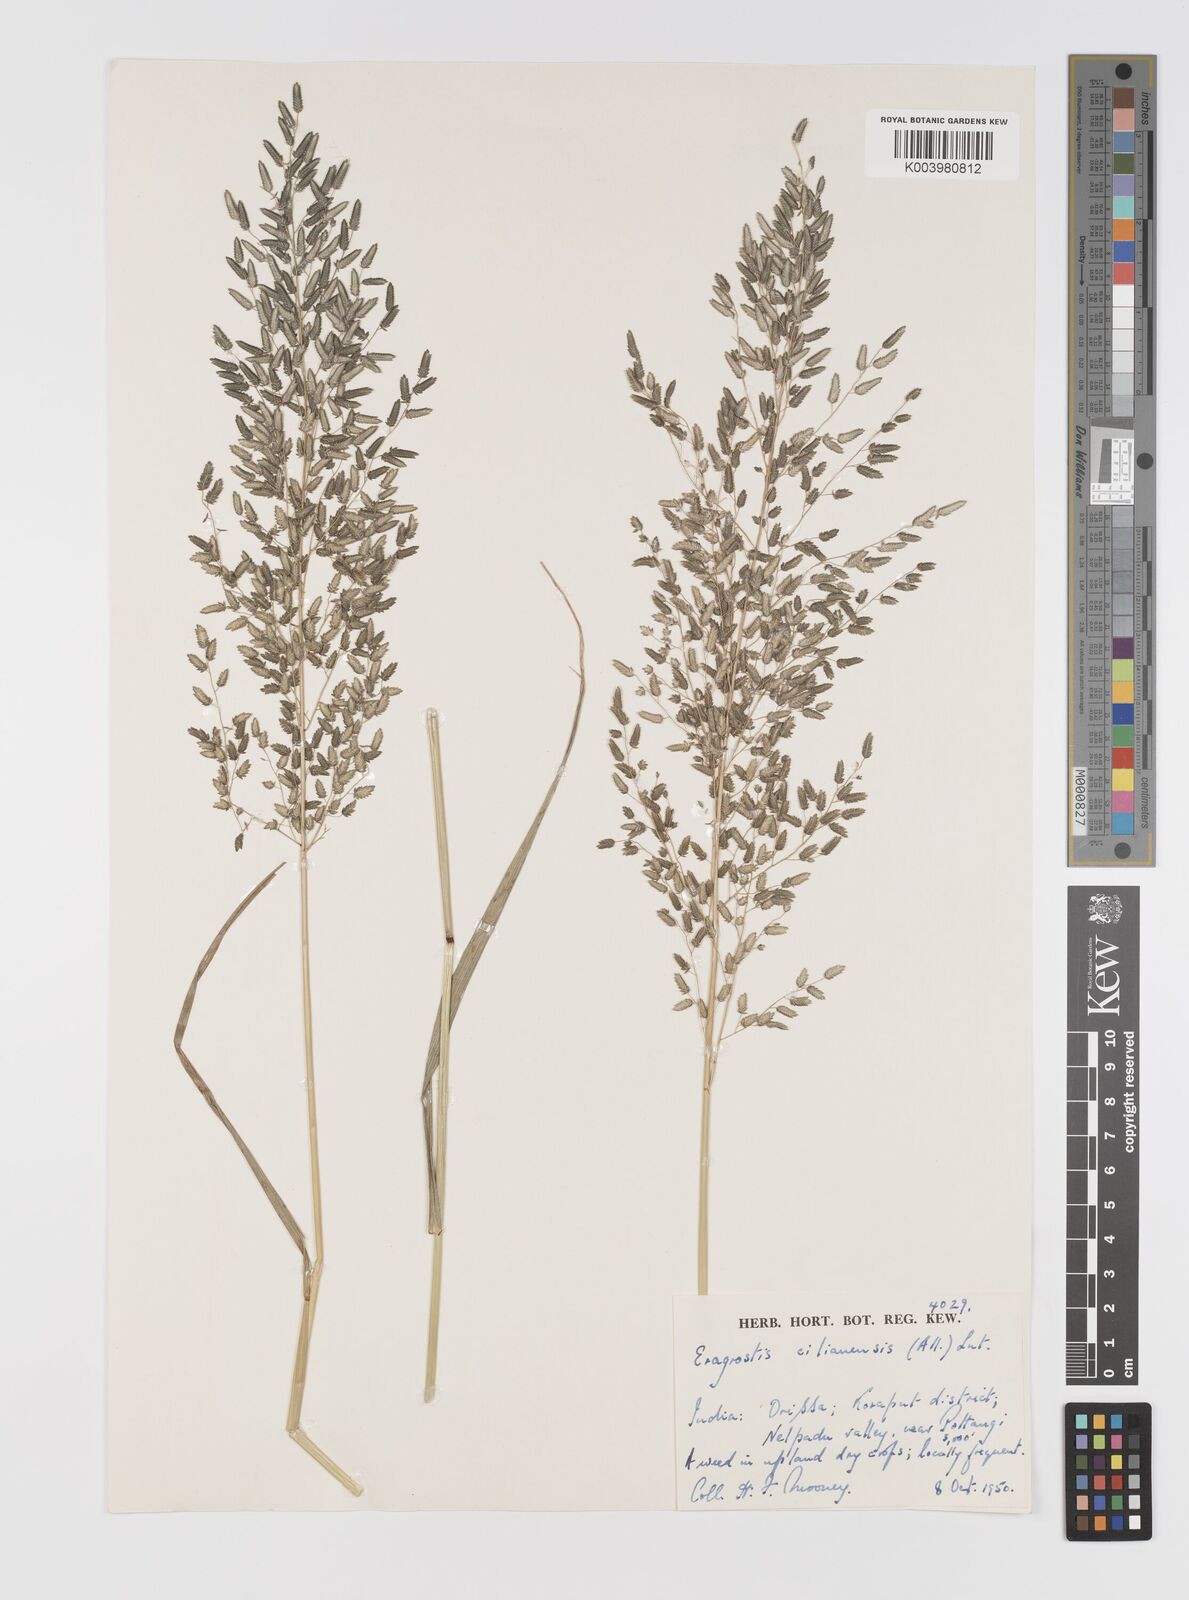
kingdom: Plantae
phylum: Tracheophyta
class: Liliopsida
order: Poales
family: Poaceae
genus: Eragrostis
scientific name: Eragrostis cilianensis
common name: Stinkgrass
